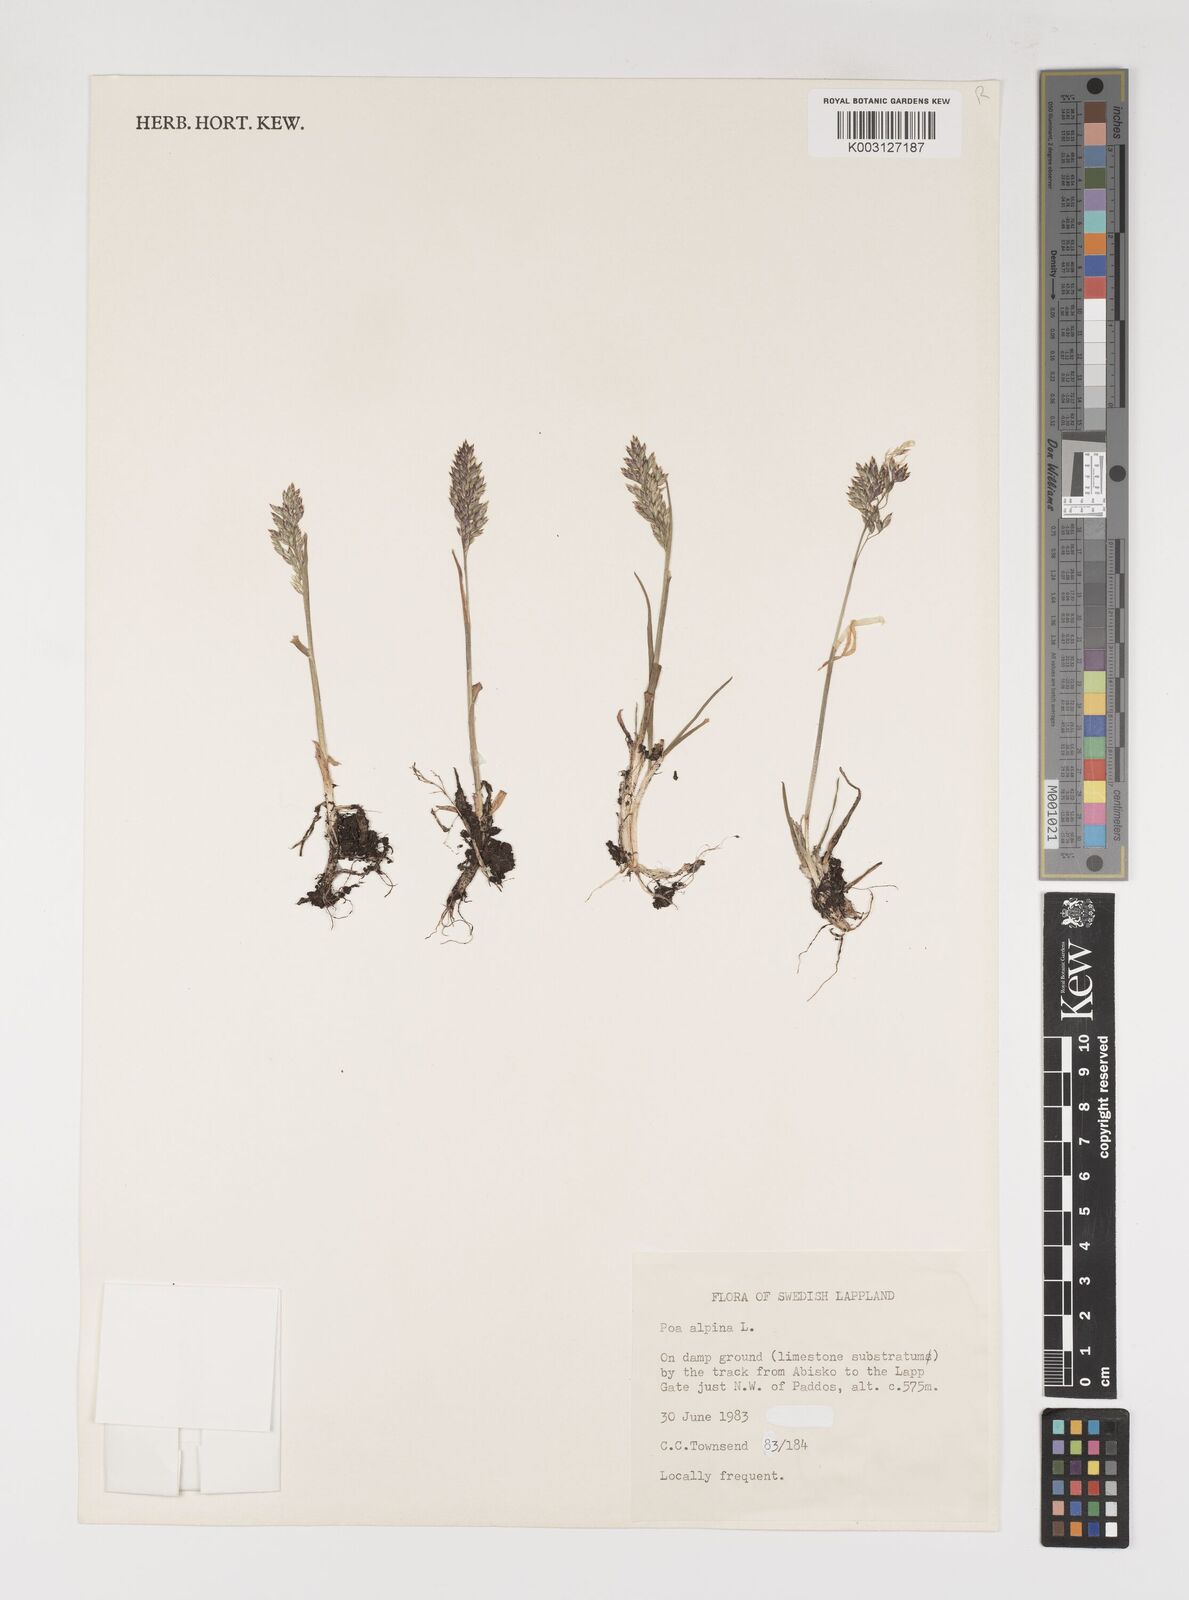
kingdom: Plantae
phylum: Tracheophyta
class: Liliopsida
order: Poales
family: Poaceae
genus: Poa
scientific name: Poa alpina
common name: Alpine bluegrass
